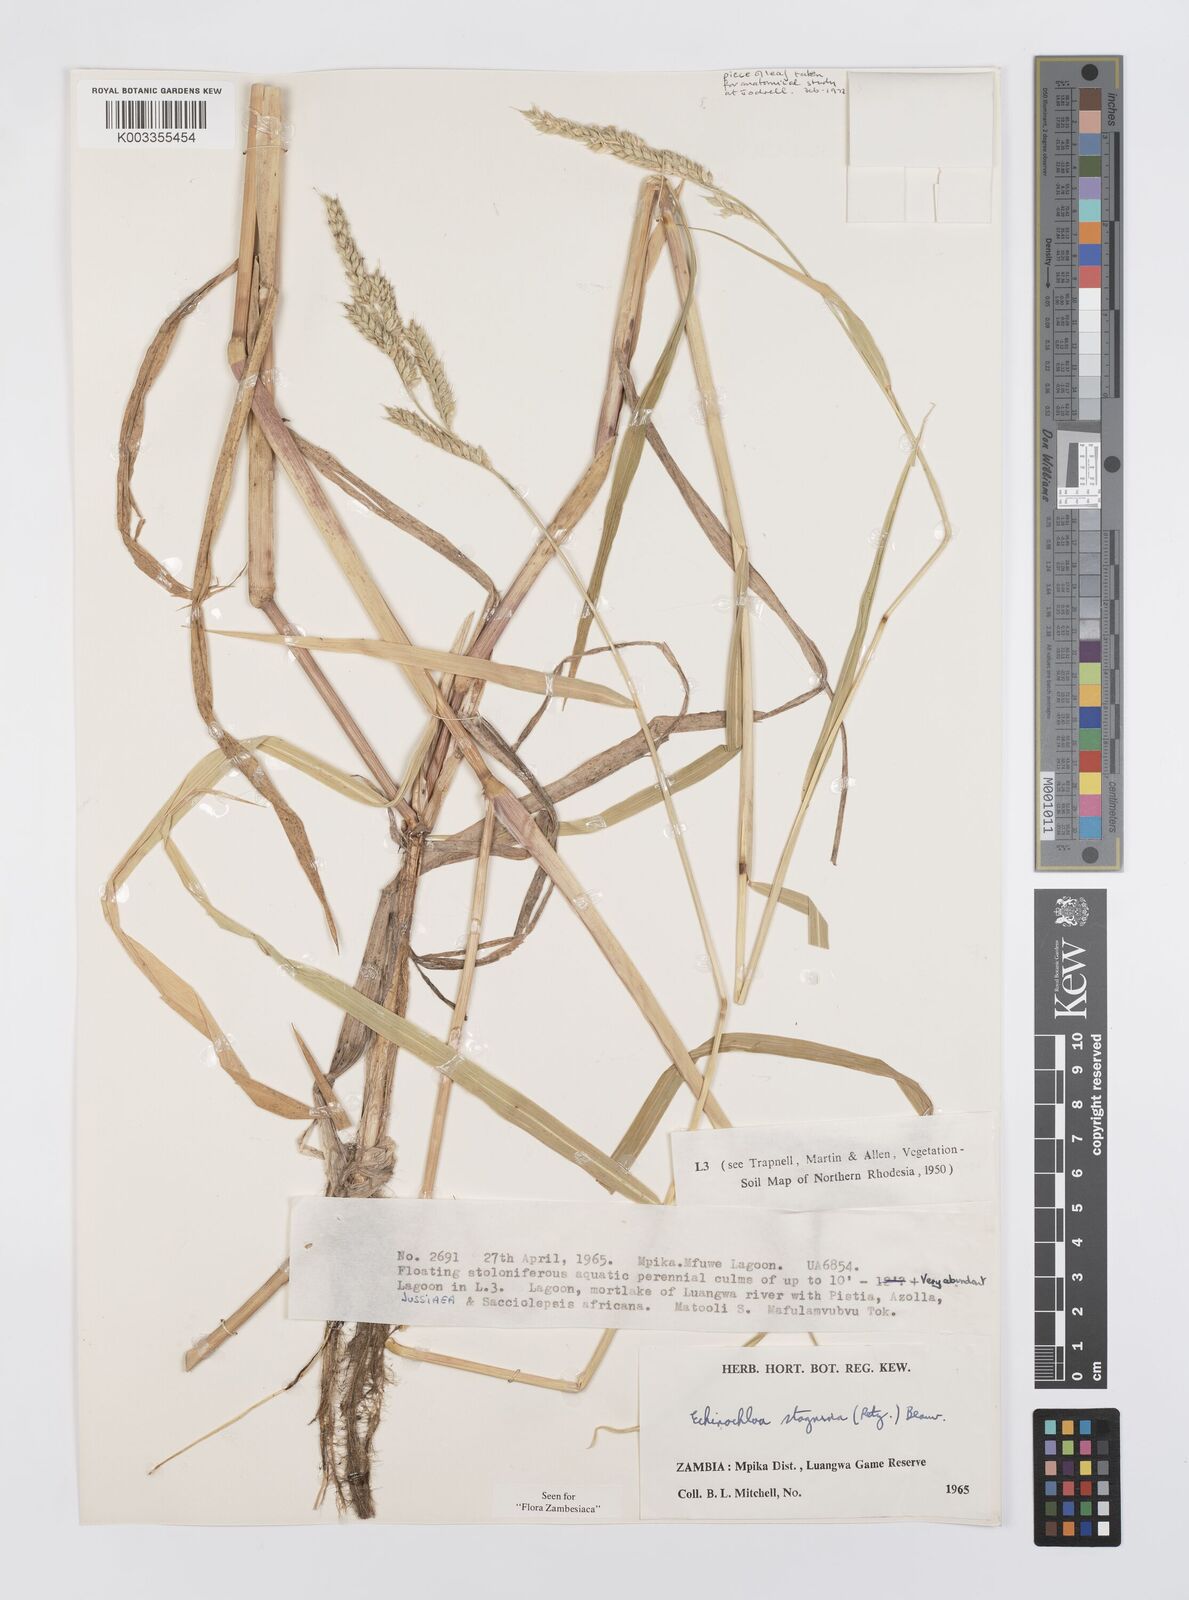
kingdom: Plantae
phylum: Tracheophyta
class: Liliopsida
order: Poales
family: Poaceae
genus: Echinochloa
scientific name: Echinochloa stagnina
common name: Burgu grass
